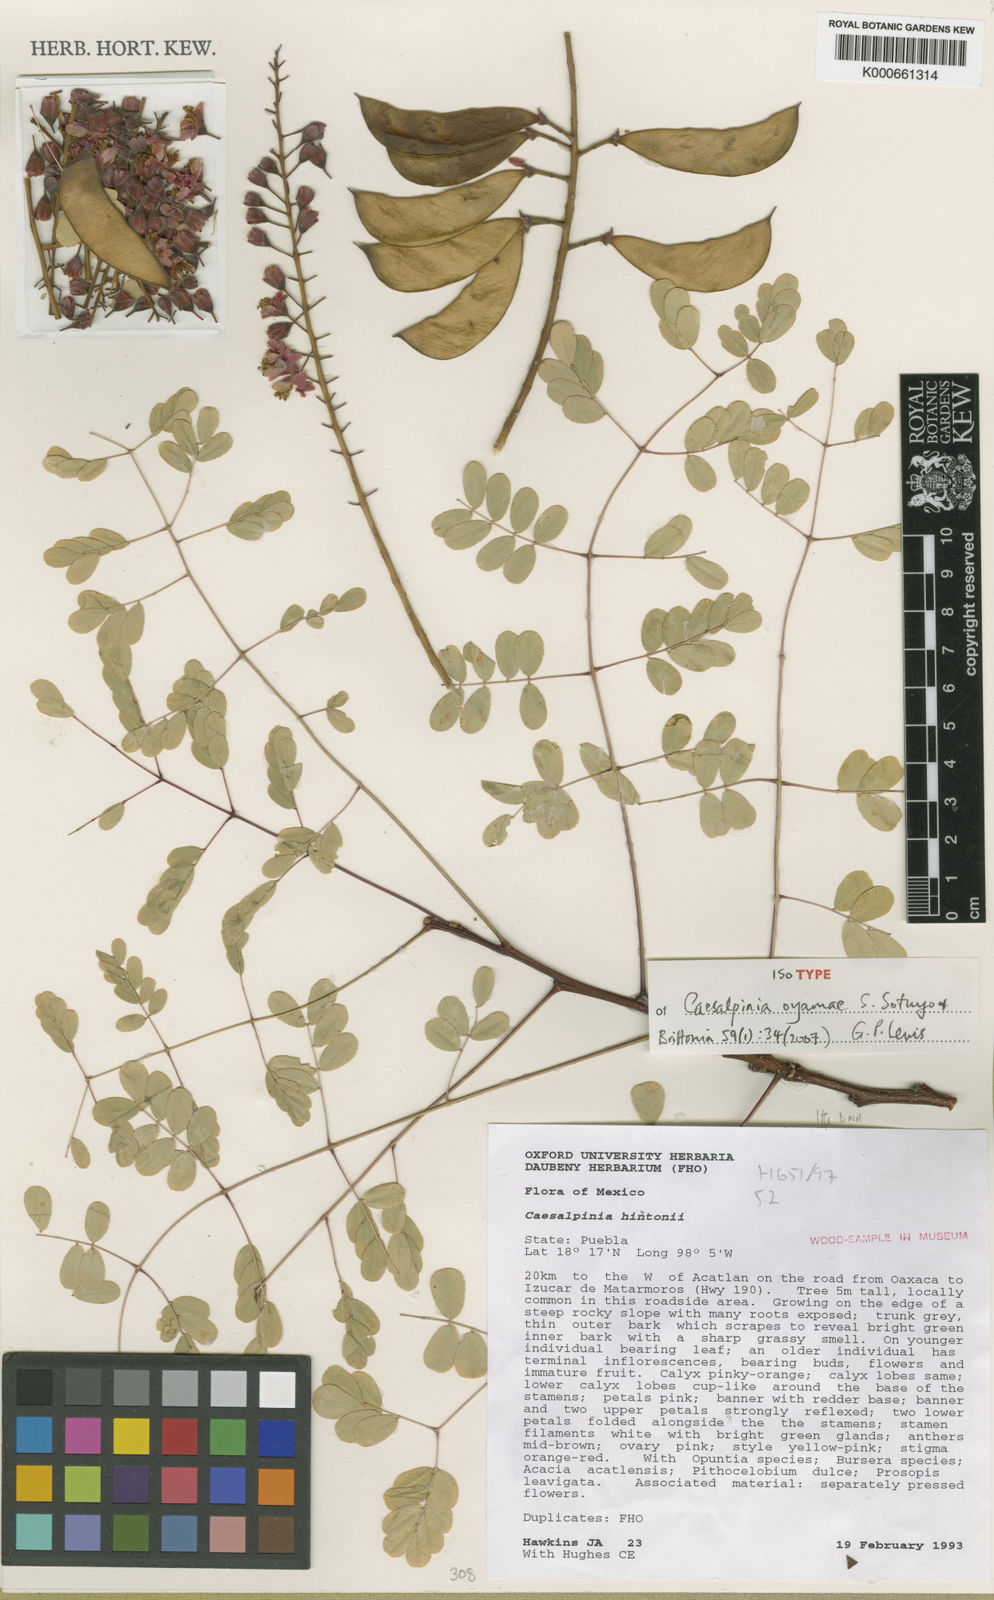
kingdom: Plantae
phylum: Tracheophyta
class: Magnoliopsida
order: Fabales
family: Fabaceae
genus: Erythrostemon
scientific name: Erythrostemon oyamae
